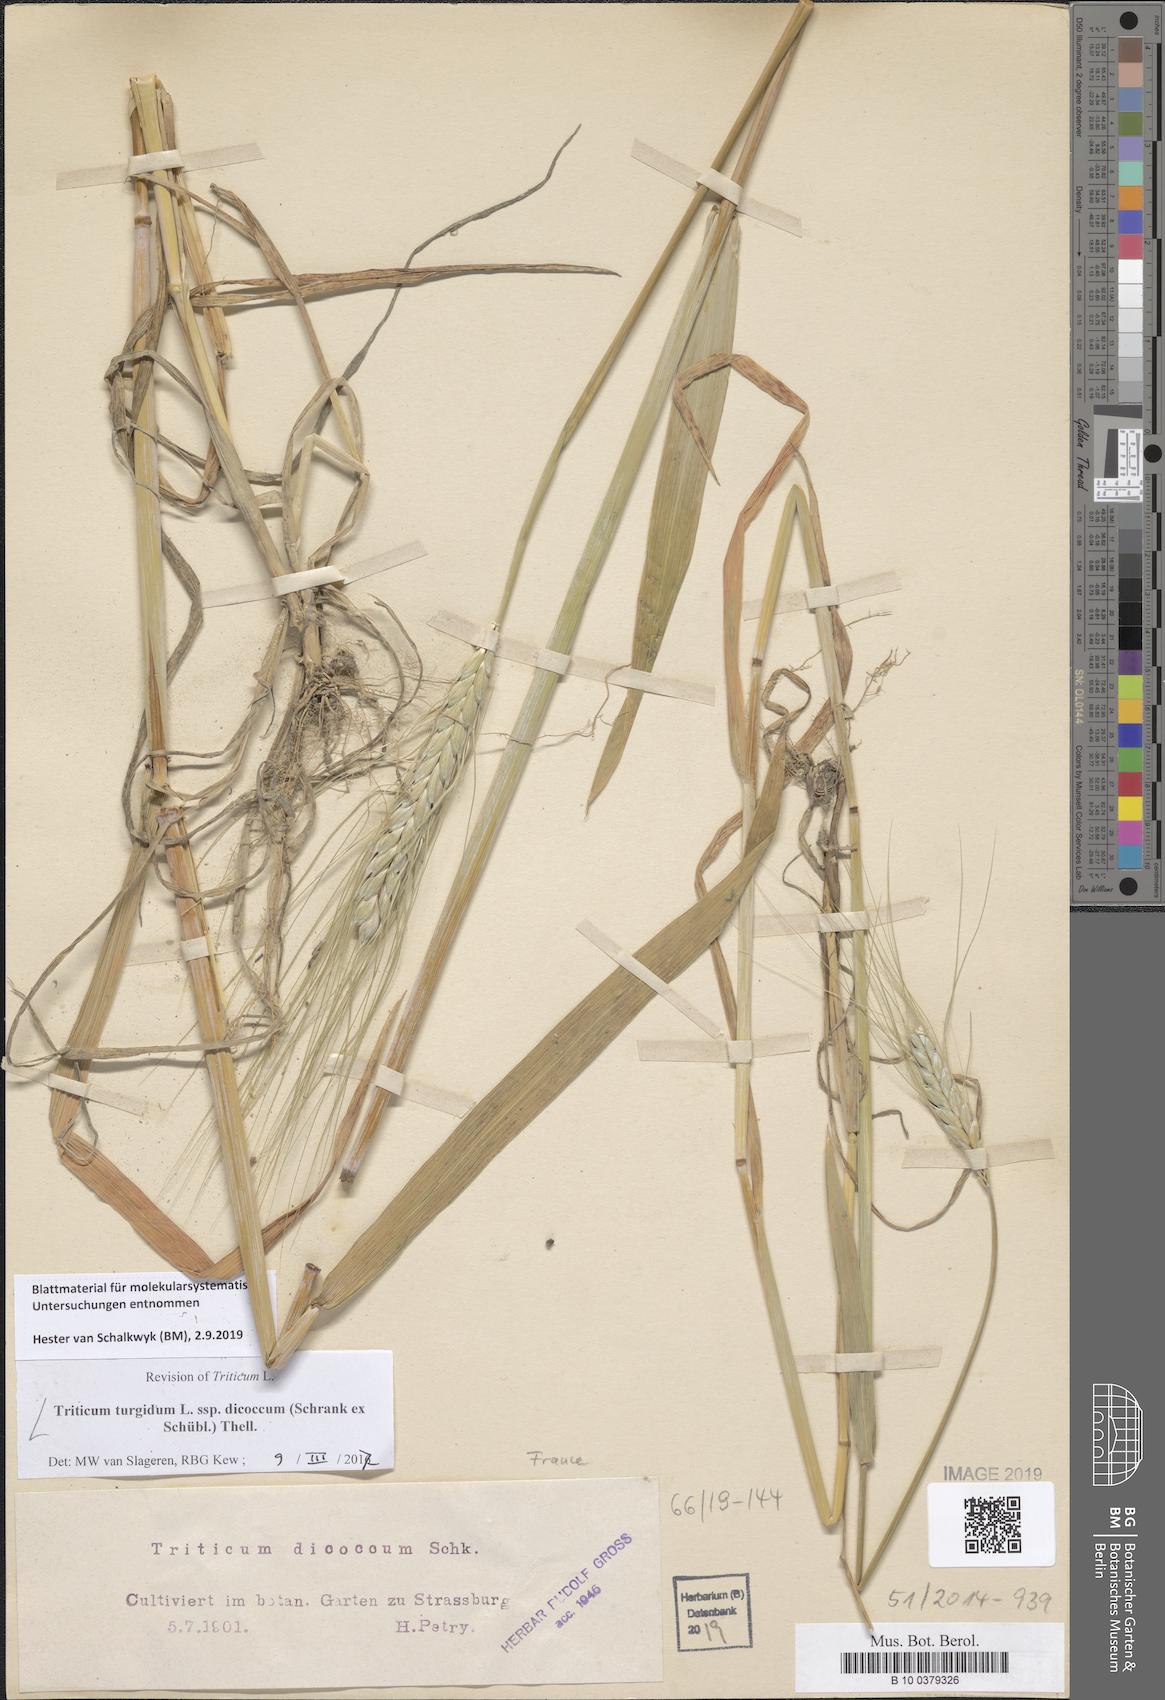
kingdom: Plantae
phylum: Tracheophyta
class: Liliopsida
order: Poales
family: Poaceae
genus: Triticum
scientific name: Triticum turgidum
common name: Rivet wheat
